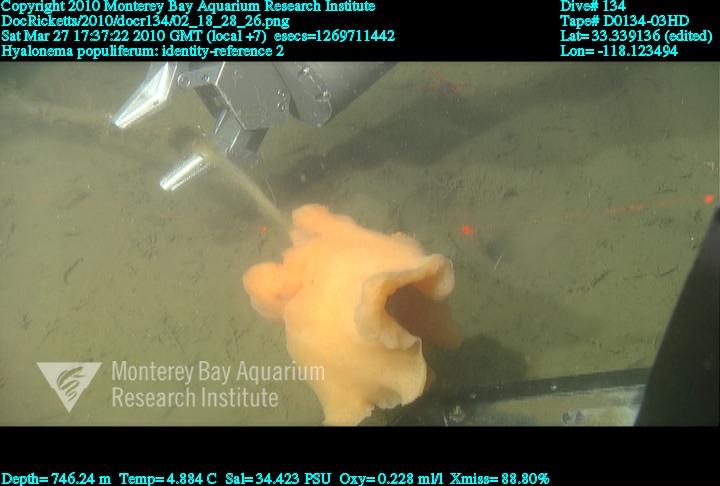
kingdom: Animalia
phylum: Porifera
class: Hexactinellida
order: Amphidiscosida
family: Hyalonematidae
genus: Hyalonema
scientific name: Hyalonema populiferum
